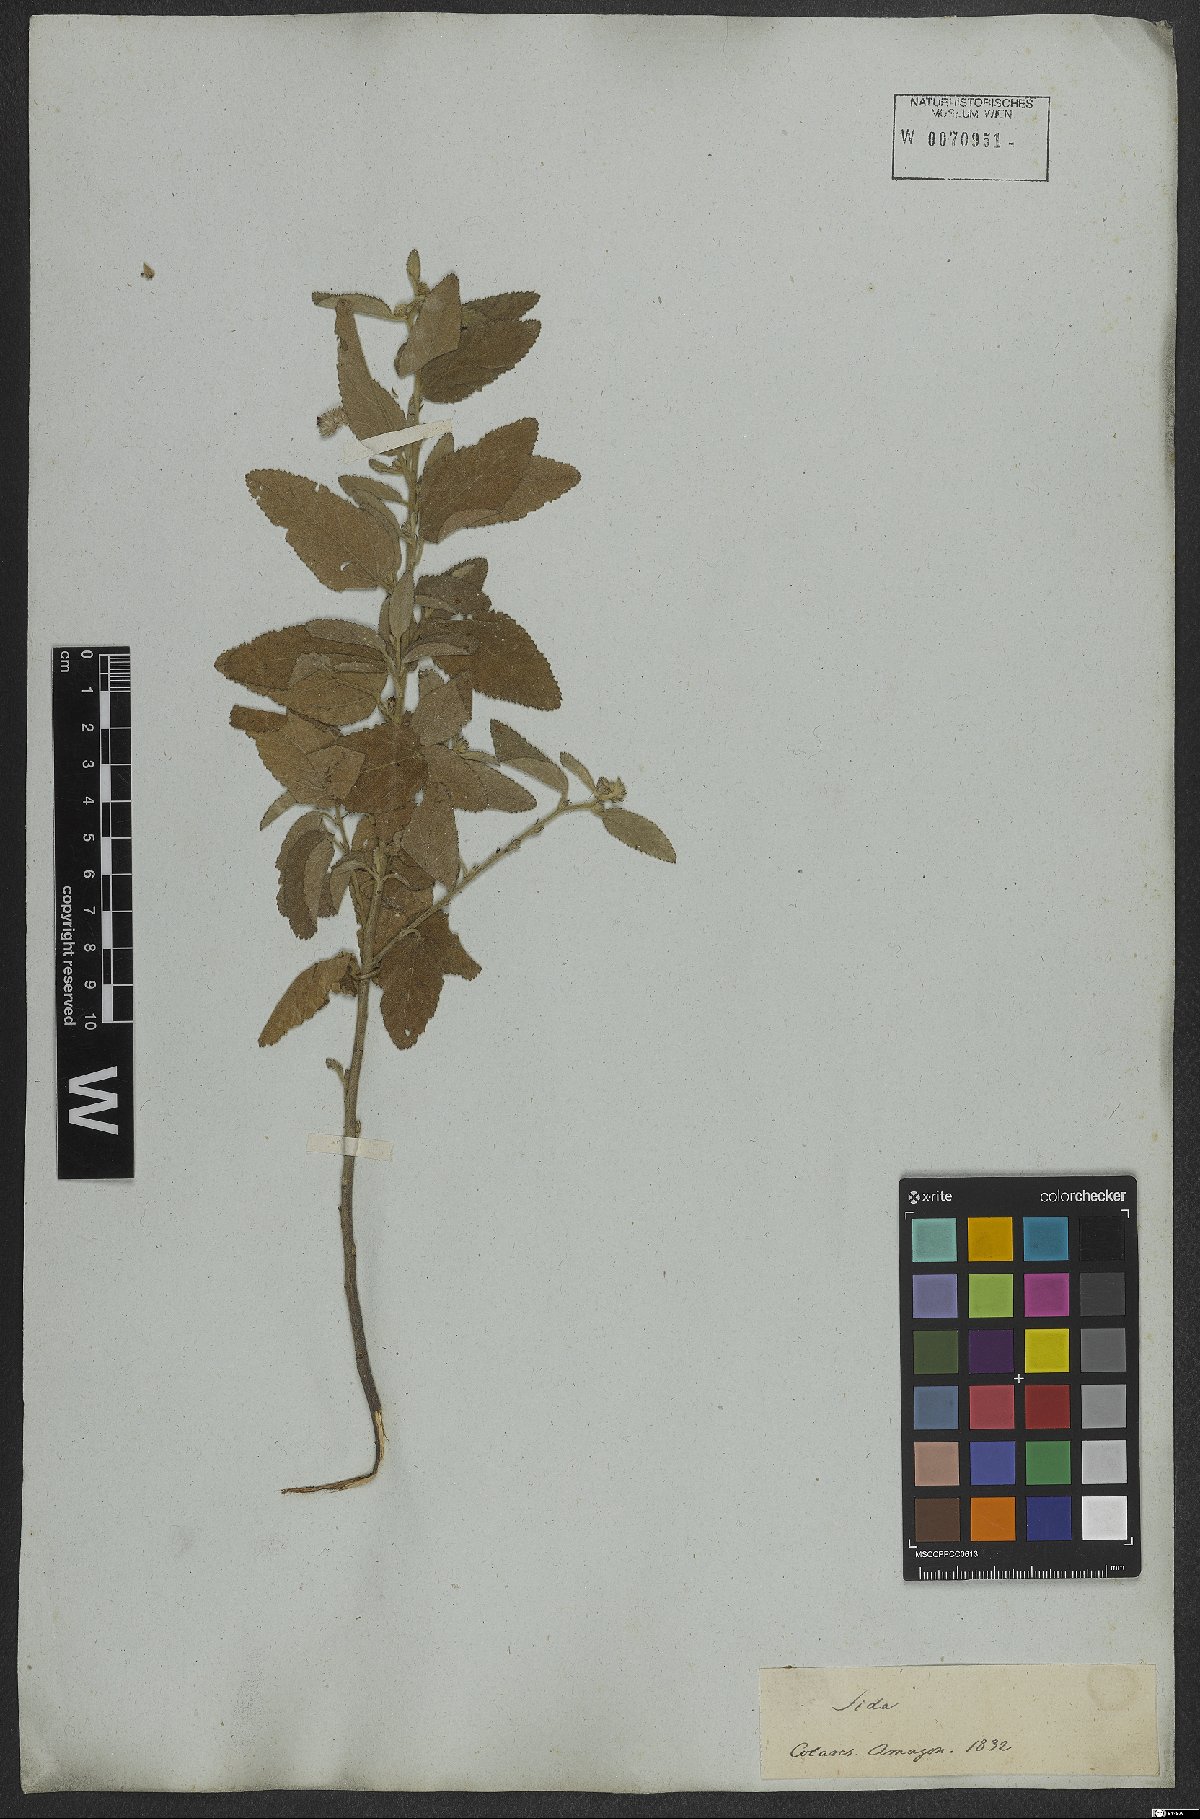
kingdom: Plantae
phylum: Tracheophyta
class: Magnoliopsida
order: Malvales
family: Malvaceae
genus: Waltheria
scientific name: Waltheria indica
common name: Leather-coat
